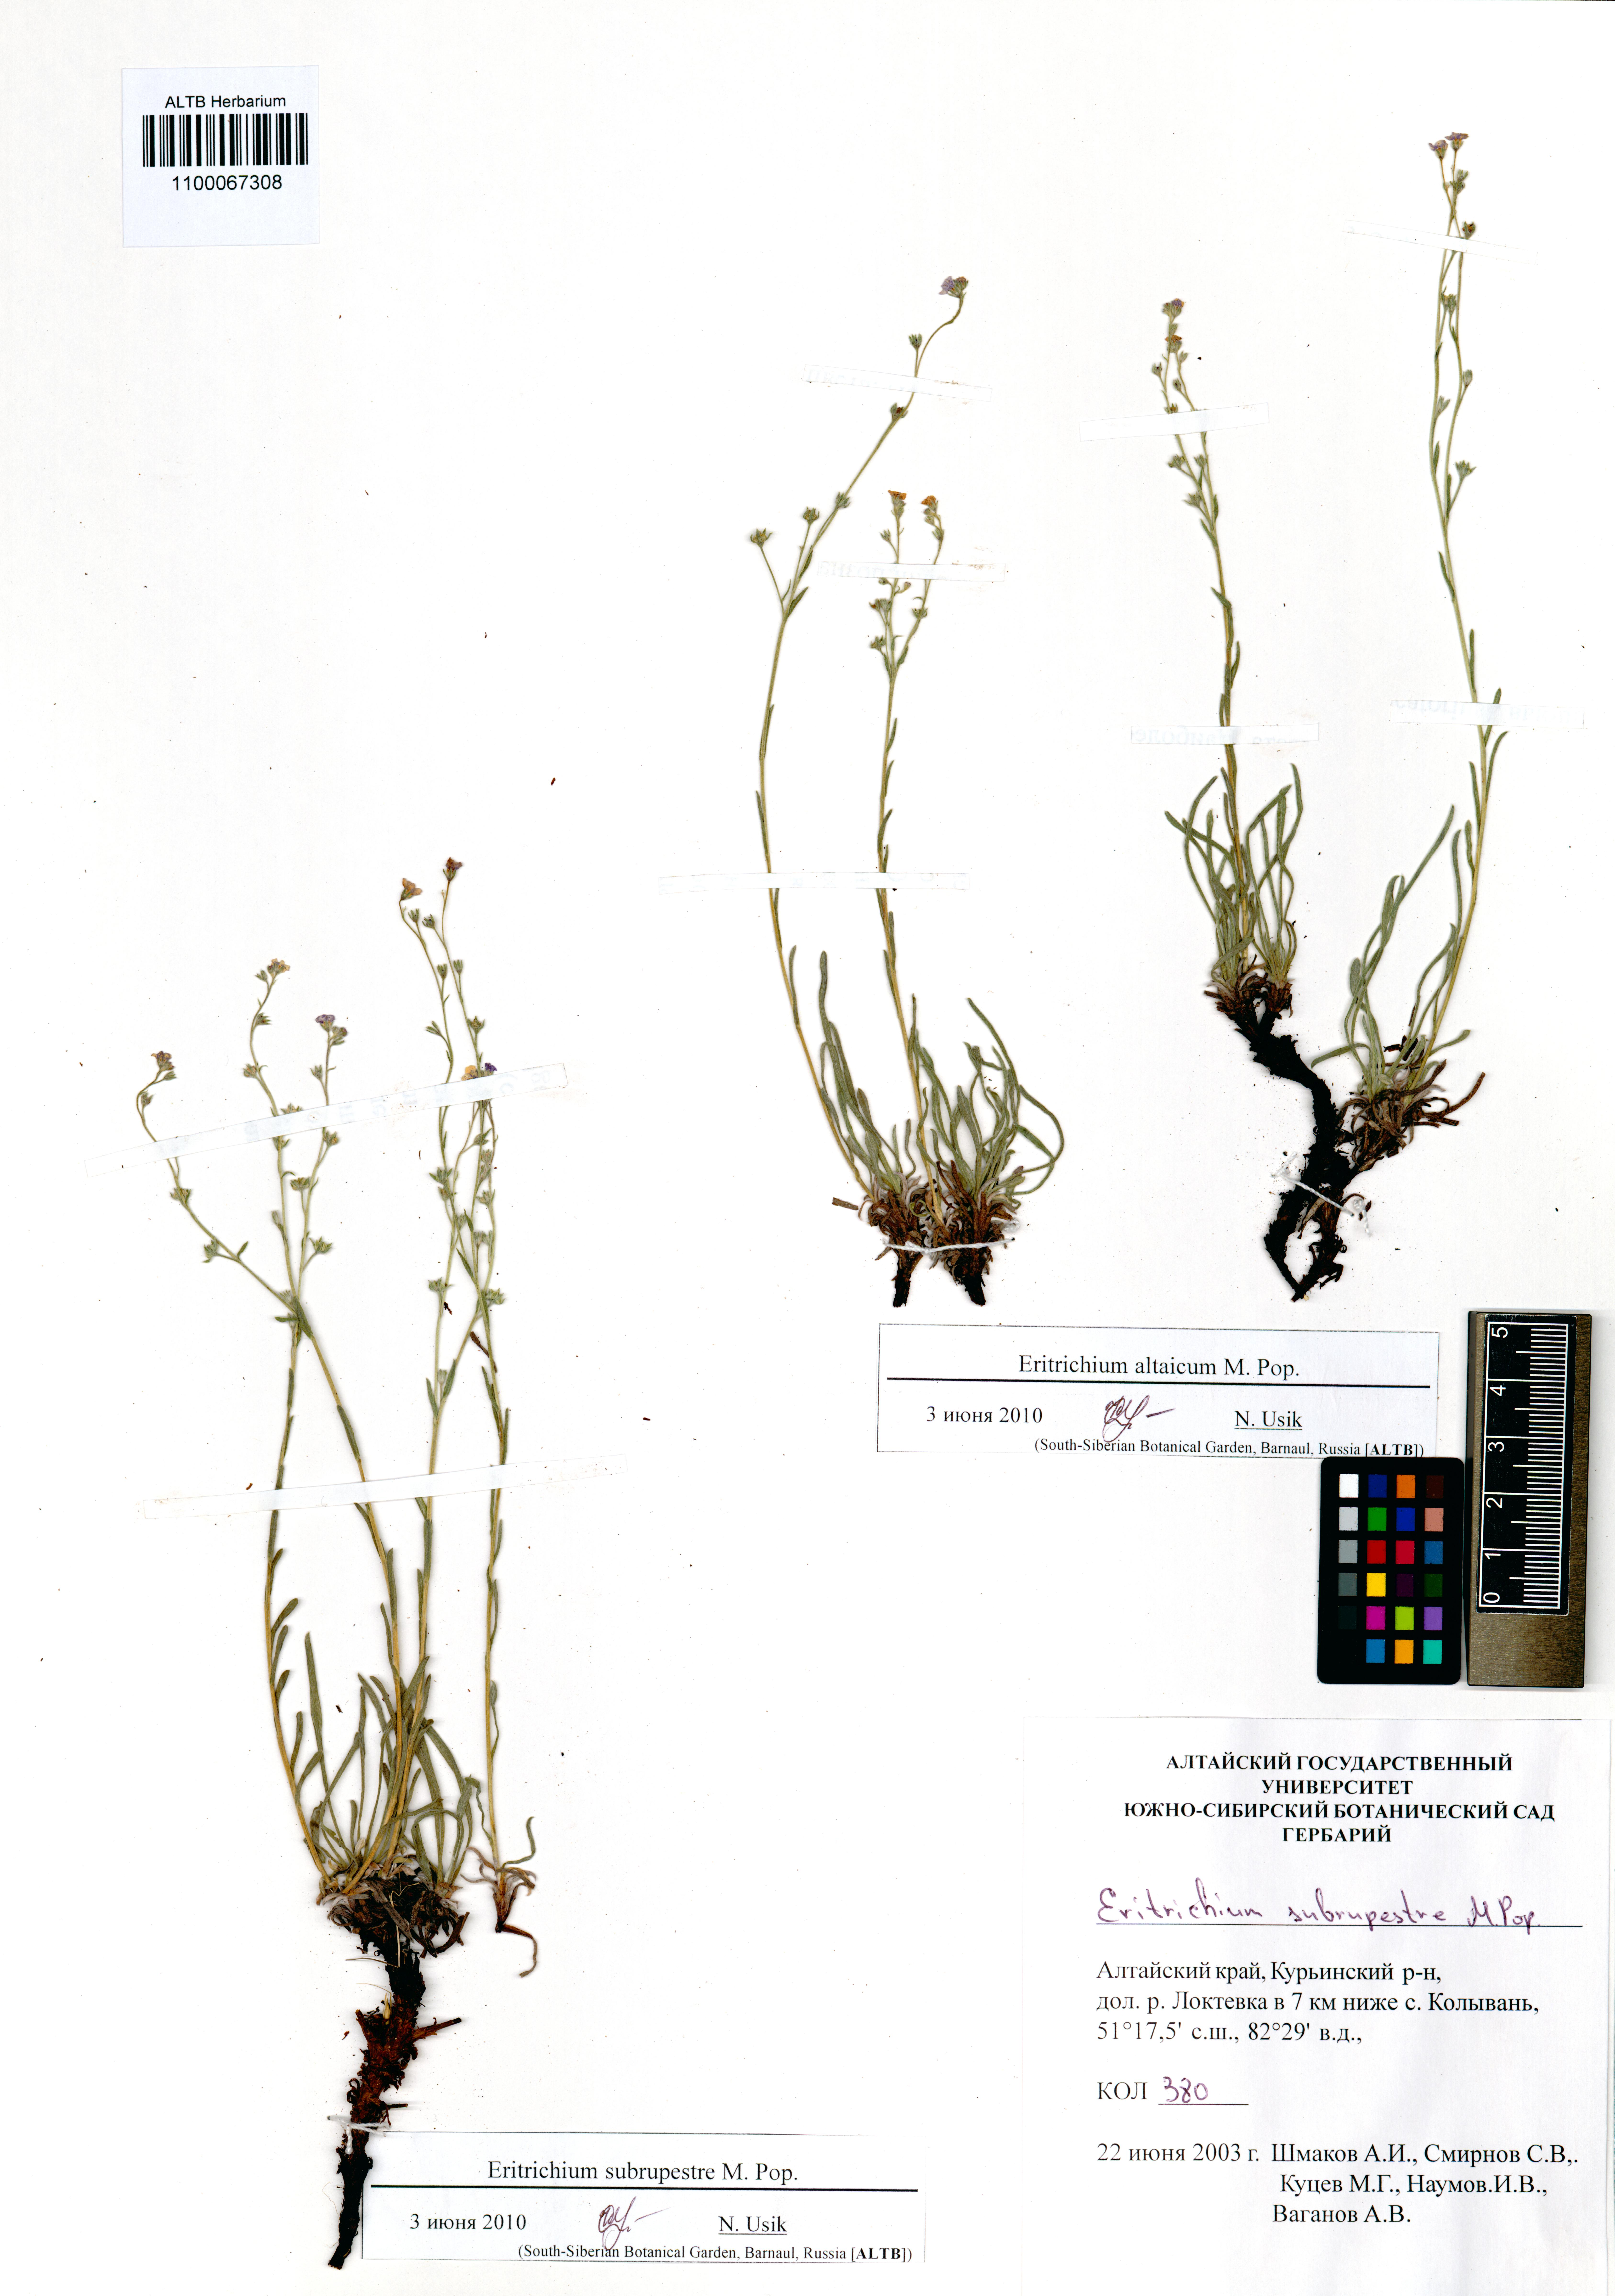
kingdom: Plantae
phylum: Tracheophyta
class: Magnoliopsida
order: Boraginales
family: Boraginaceae
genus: Eritrichium
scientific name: Eritrichium pauciflorum
